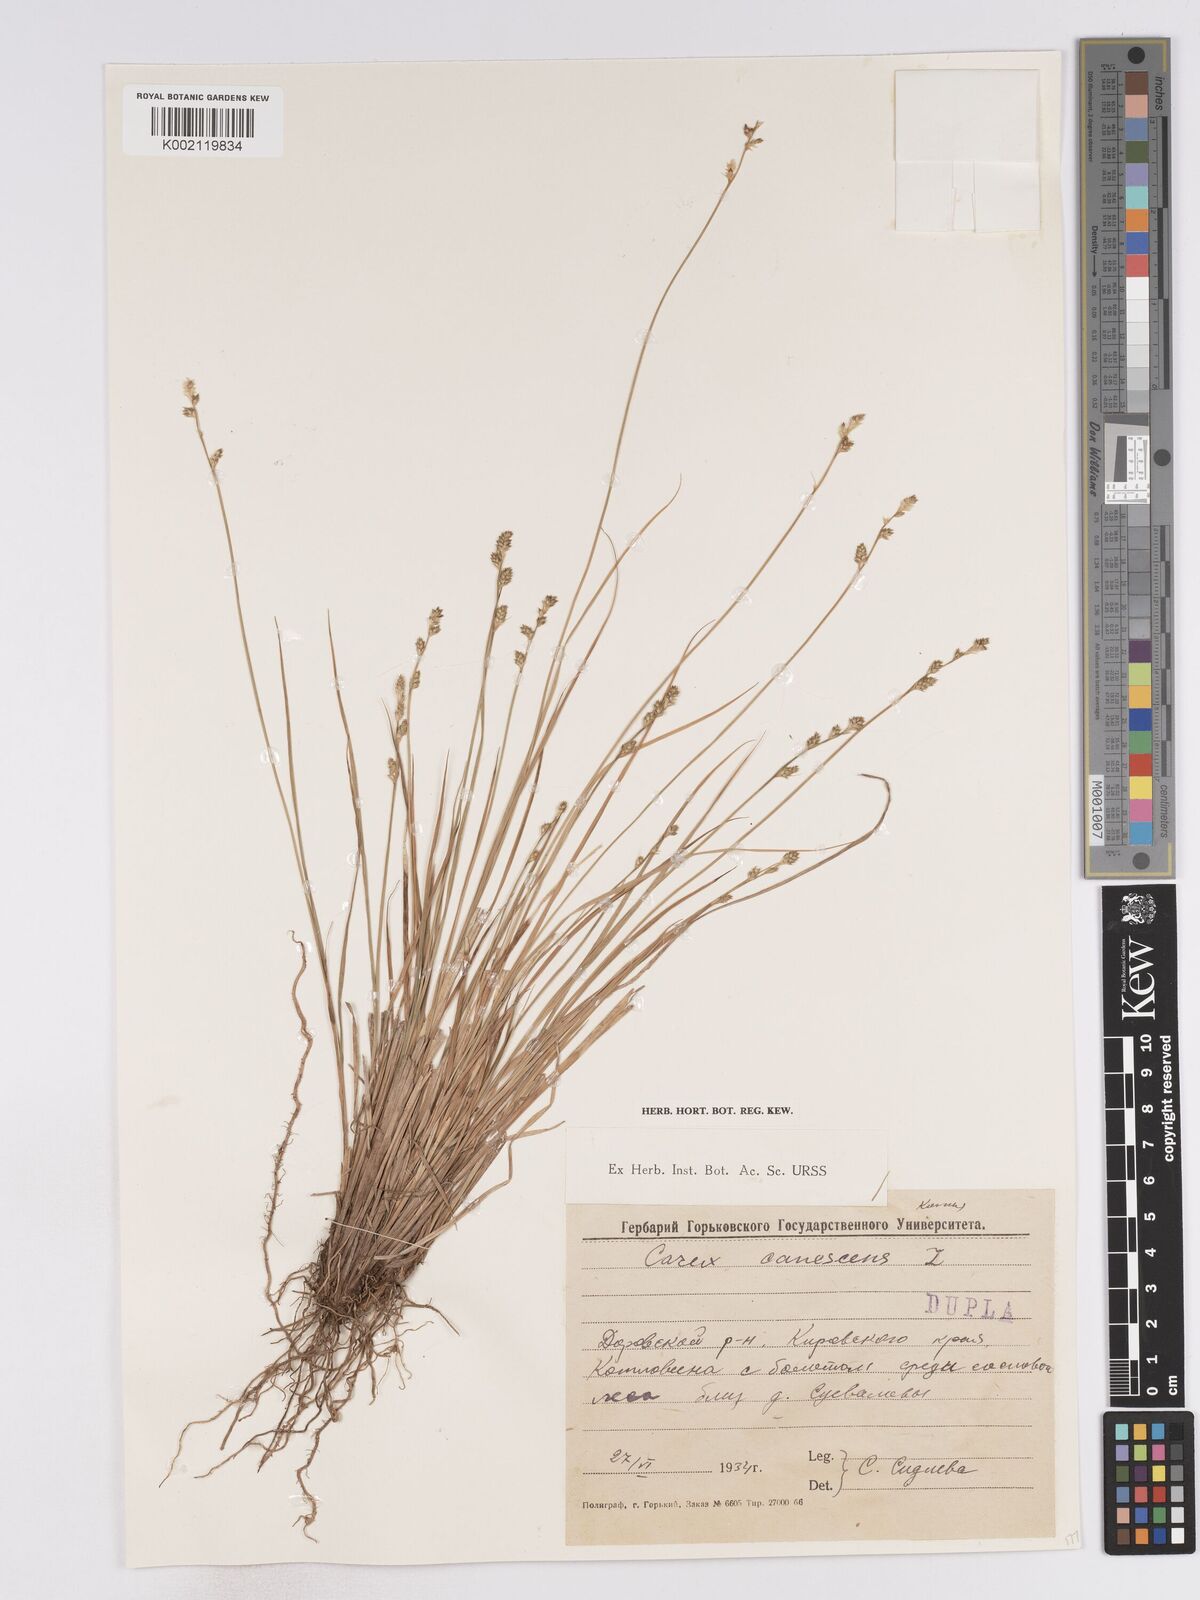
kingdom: Plantae
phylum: Tracheophyta
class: Liliopsida
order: Poales
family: Cyperaceae
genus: Carex
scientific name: Carex curta
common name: White sedge
